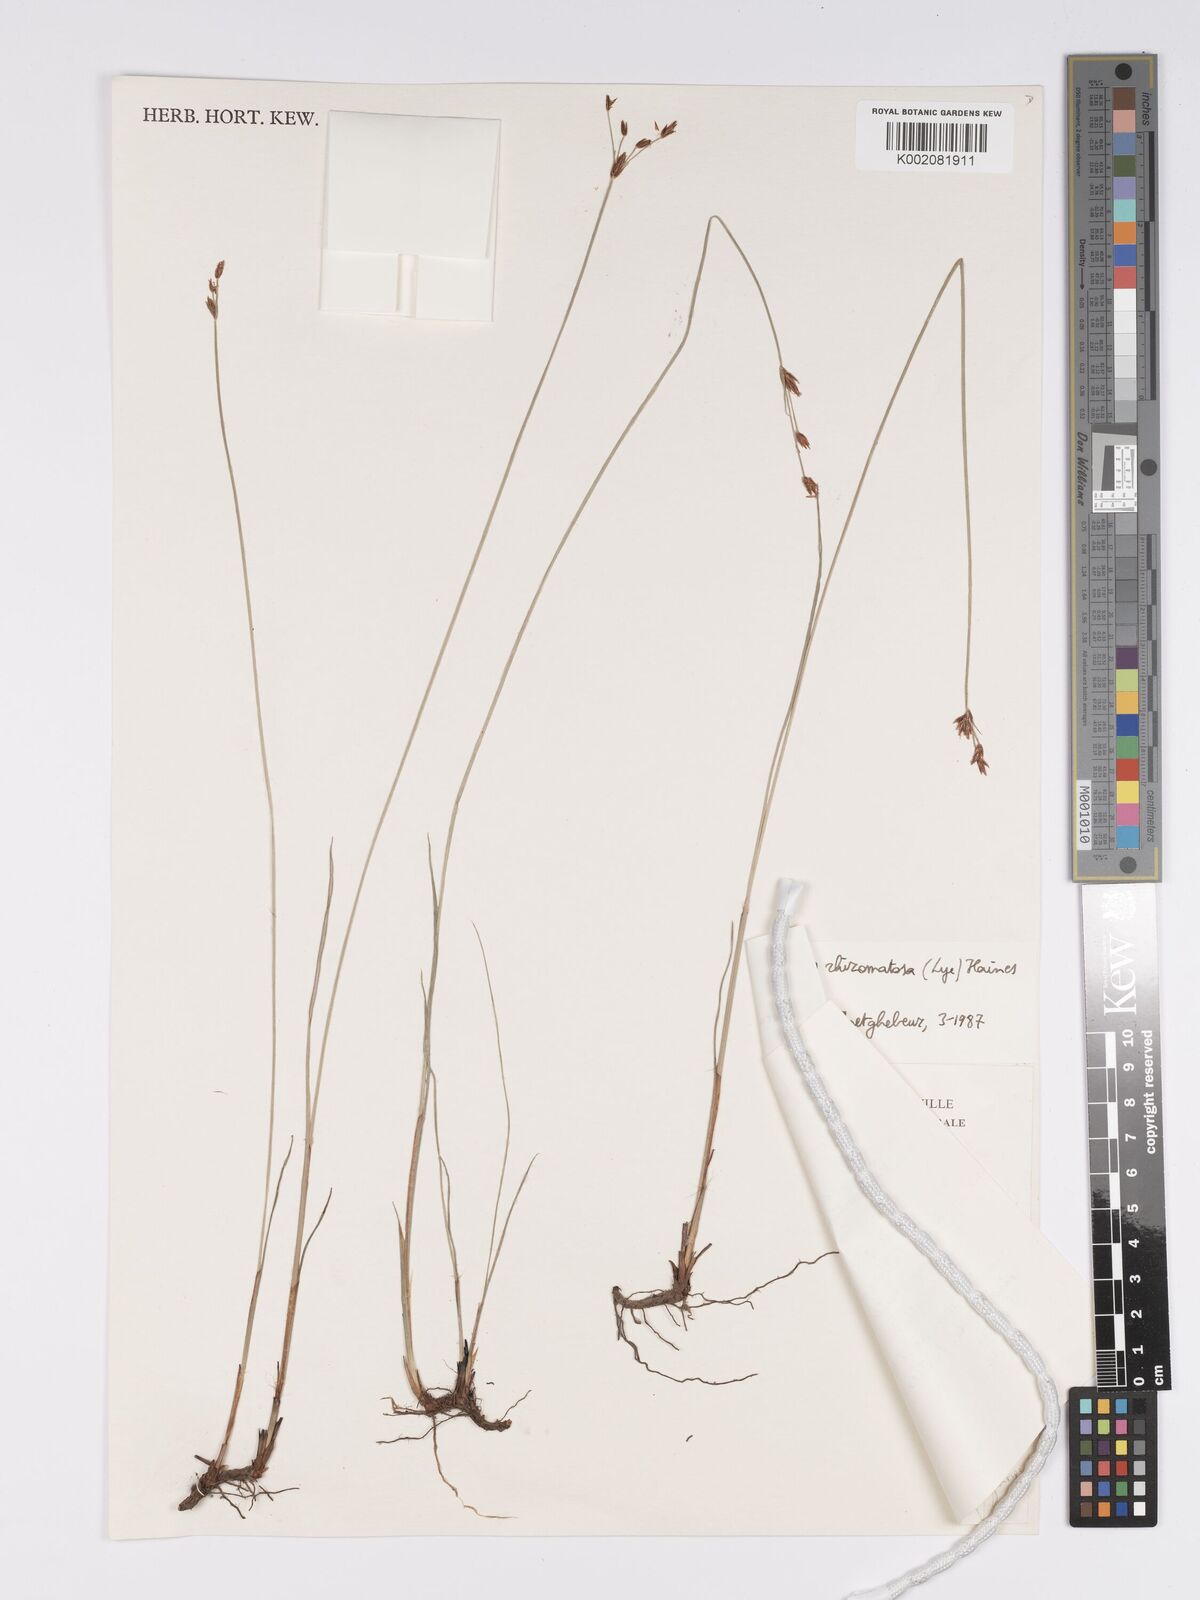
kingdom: Plantae
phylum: Tracheophyta
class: Liliopsida
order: Poales
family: Cyperaceae
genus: Bulbostylis
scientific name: Bulbostylis rhizomatosa
